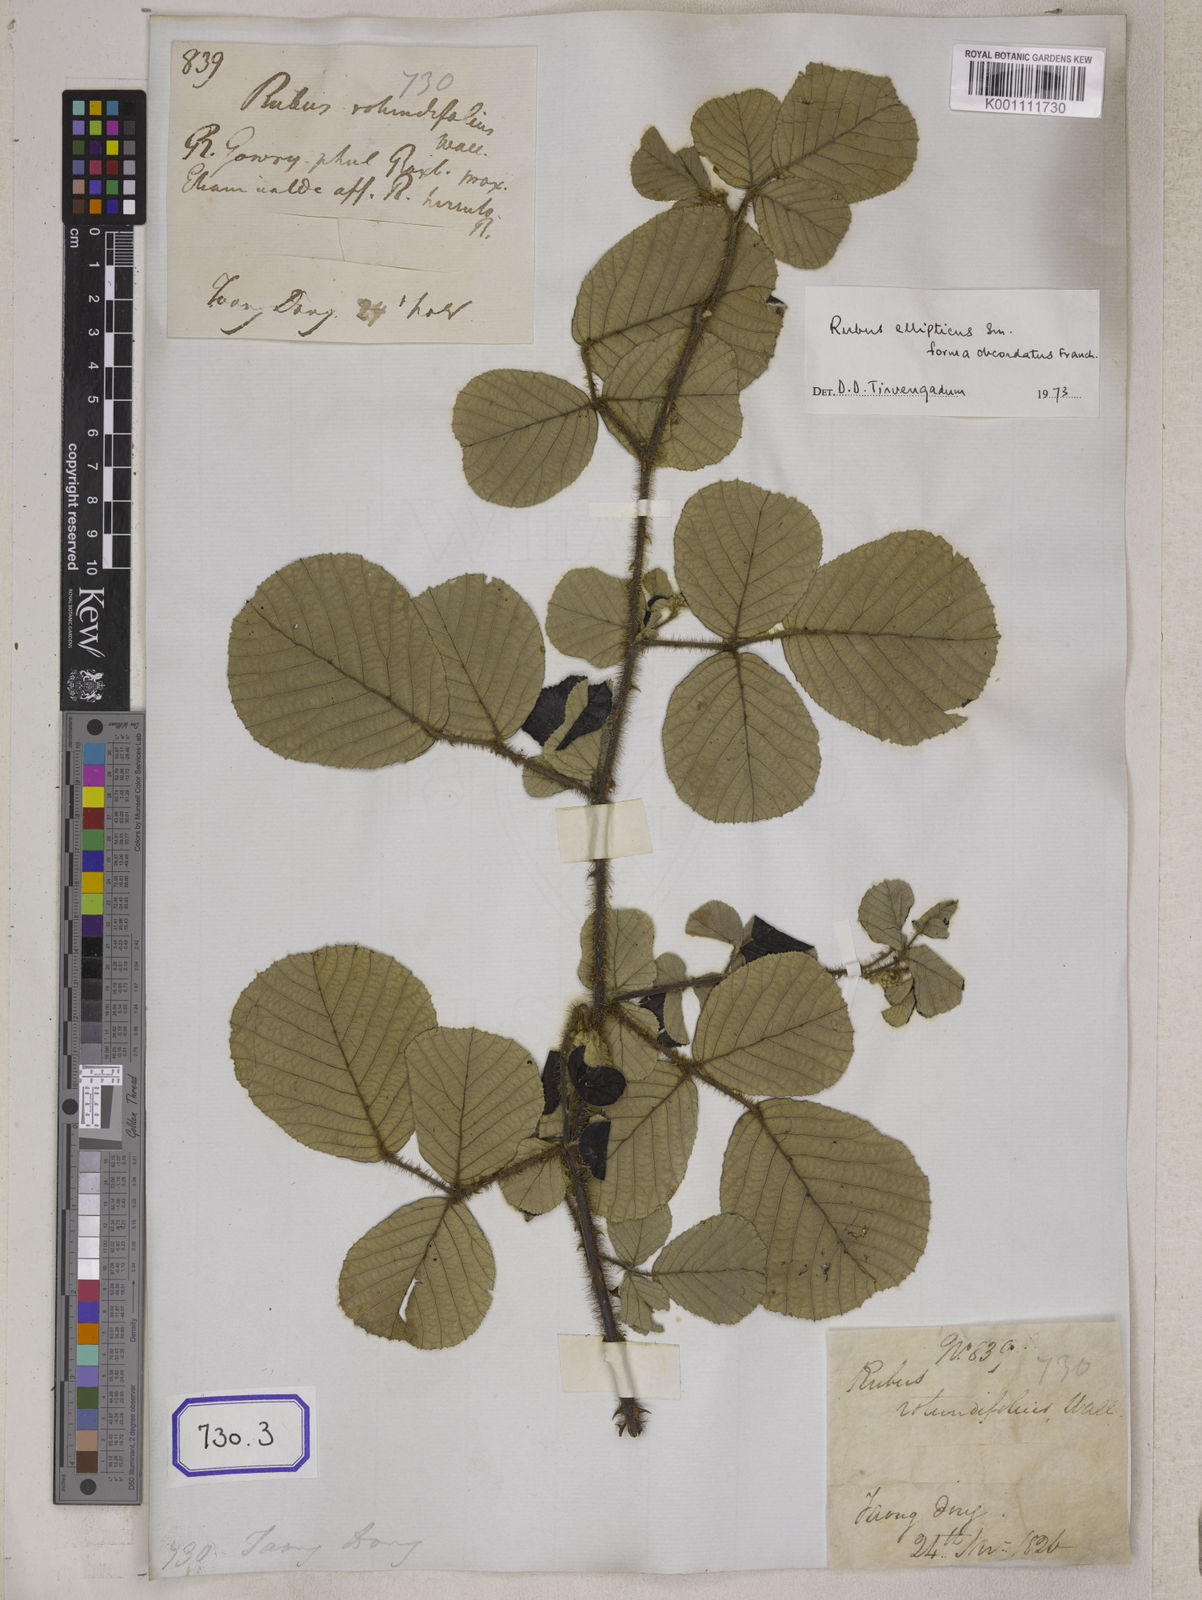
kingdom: Plantae
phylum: Tracheophyta
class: Magnoliopsida
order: Rosales
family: Rosaceae
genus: Rubus
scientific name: Rubus
